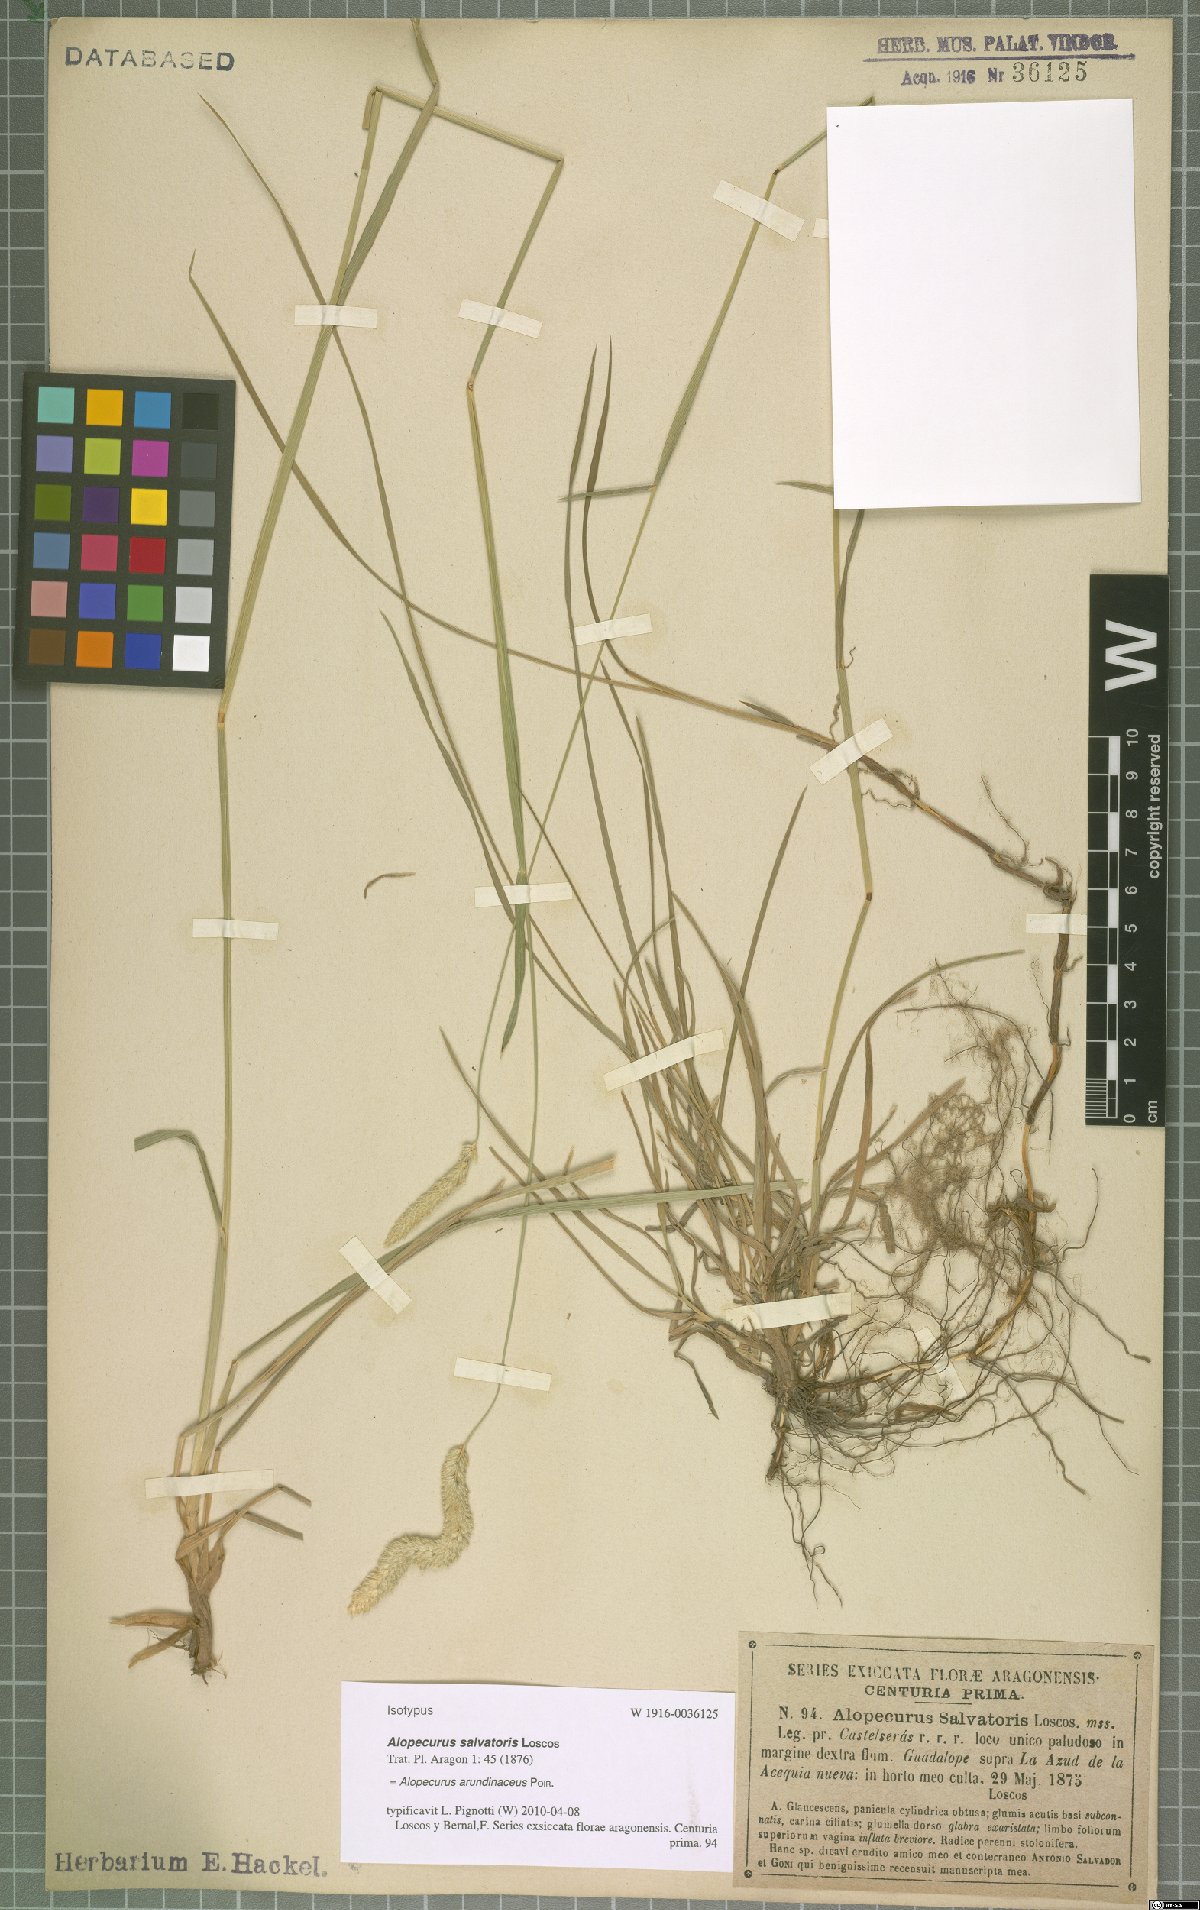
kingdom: Plantae
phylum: Tracheophyta
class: Liliopsida
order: Poales
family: Poaceae
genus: Alopecurus
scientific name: Alopecurus arundinaceus
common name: Creeping meadow foxtail
